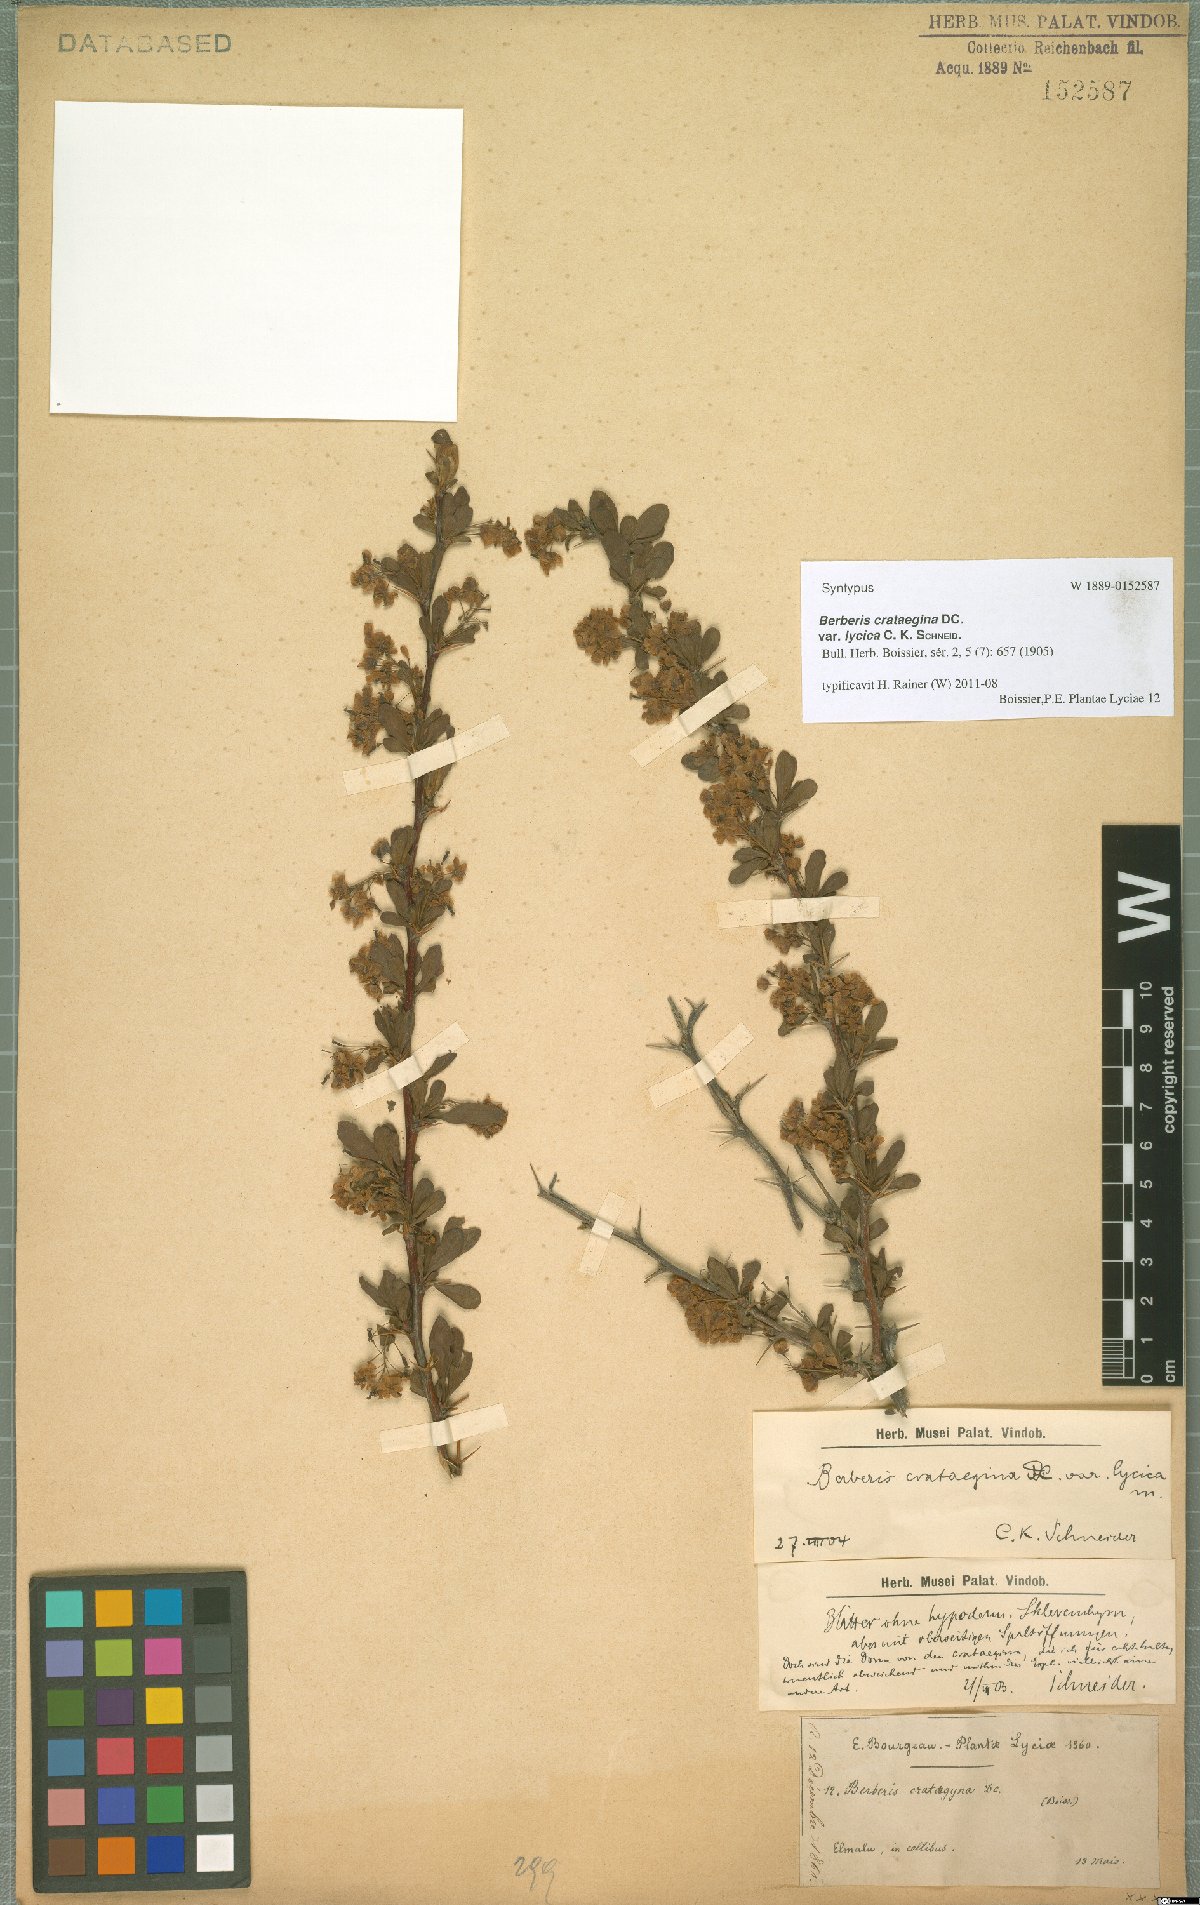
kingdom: Plantae
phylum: Tracheophyta
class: Magnoliopsida
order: Ranunculales
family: Berberidaceae
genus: Berberis
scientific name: Berberis crataegina
